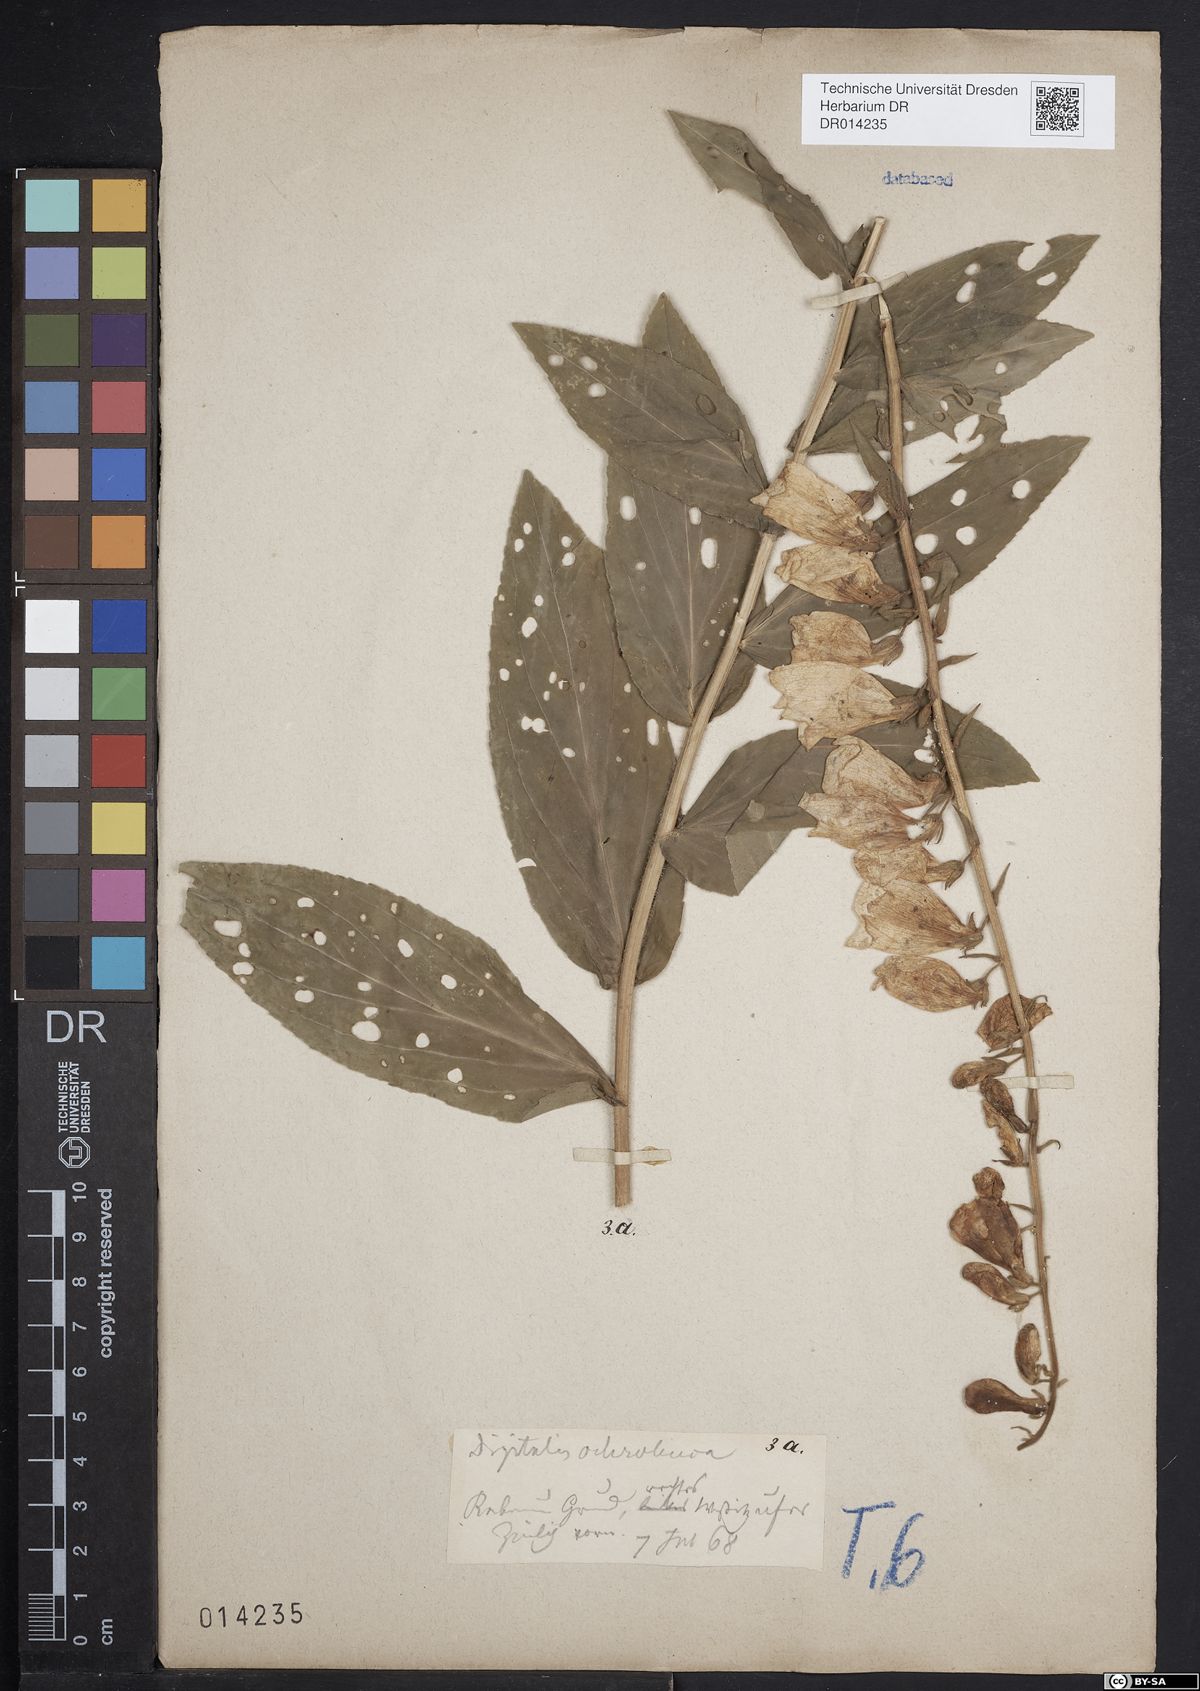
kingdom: Plantae
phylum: Tracheophyta
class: Magnoliopsida
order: Lamiales
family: Plantaginaceae
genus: Digitalis
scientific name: Digitalis grandiflora
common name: Yellow foxglove
